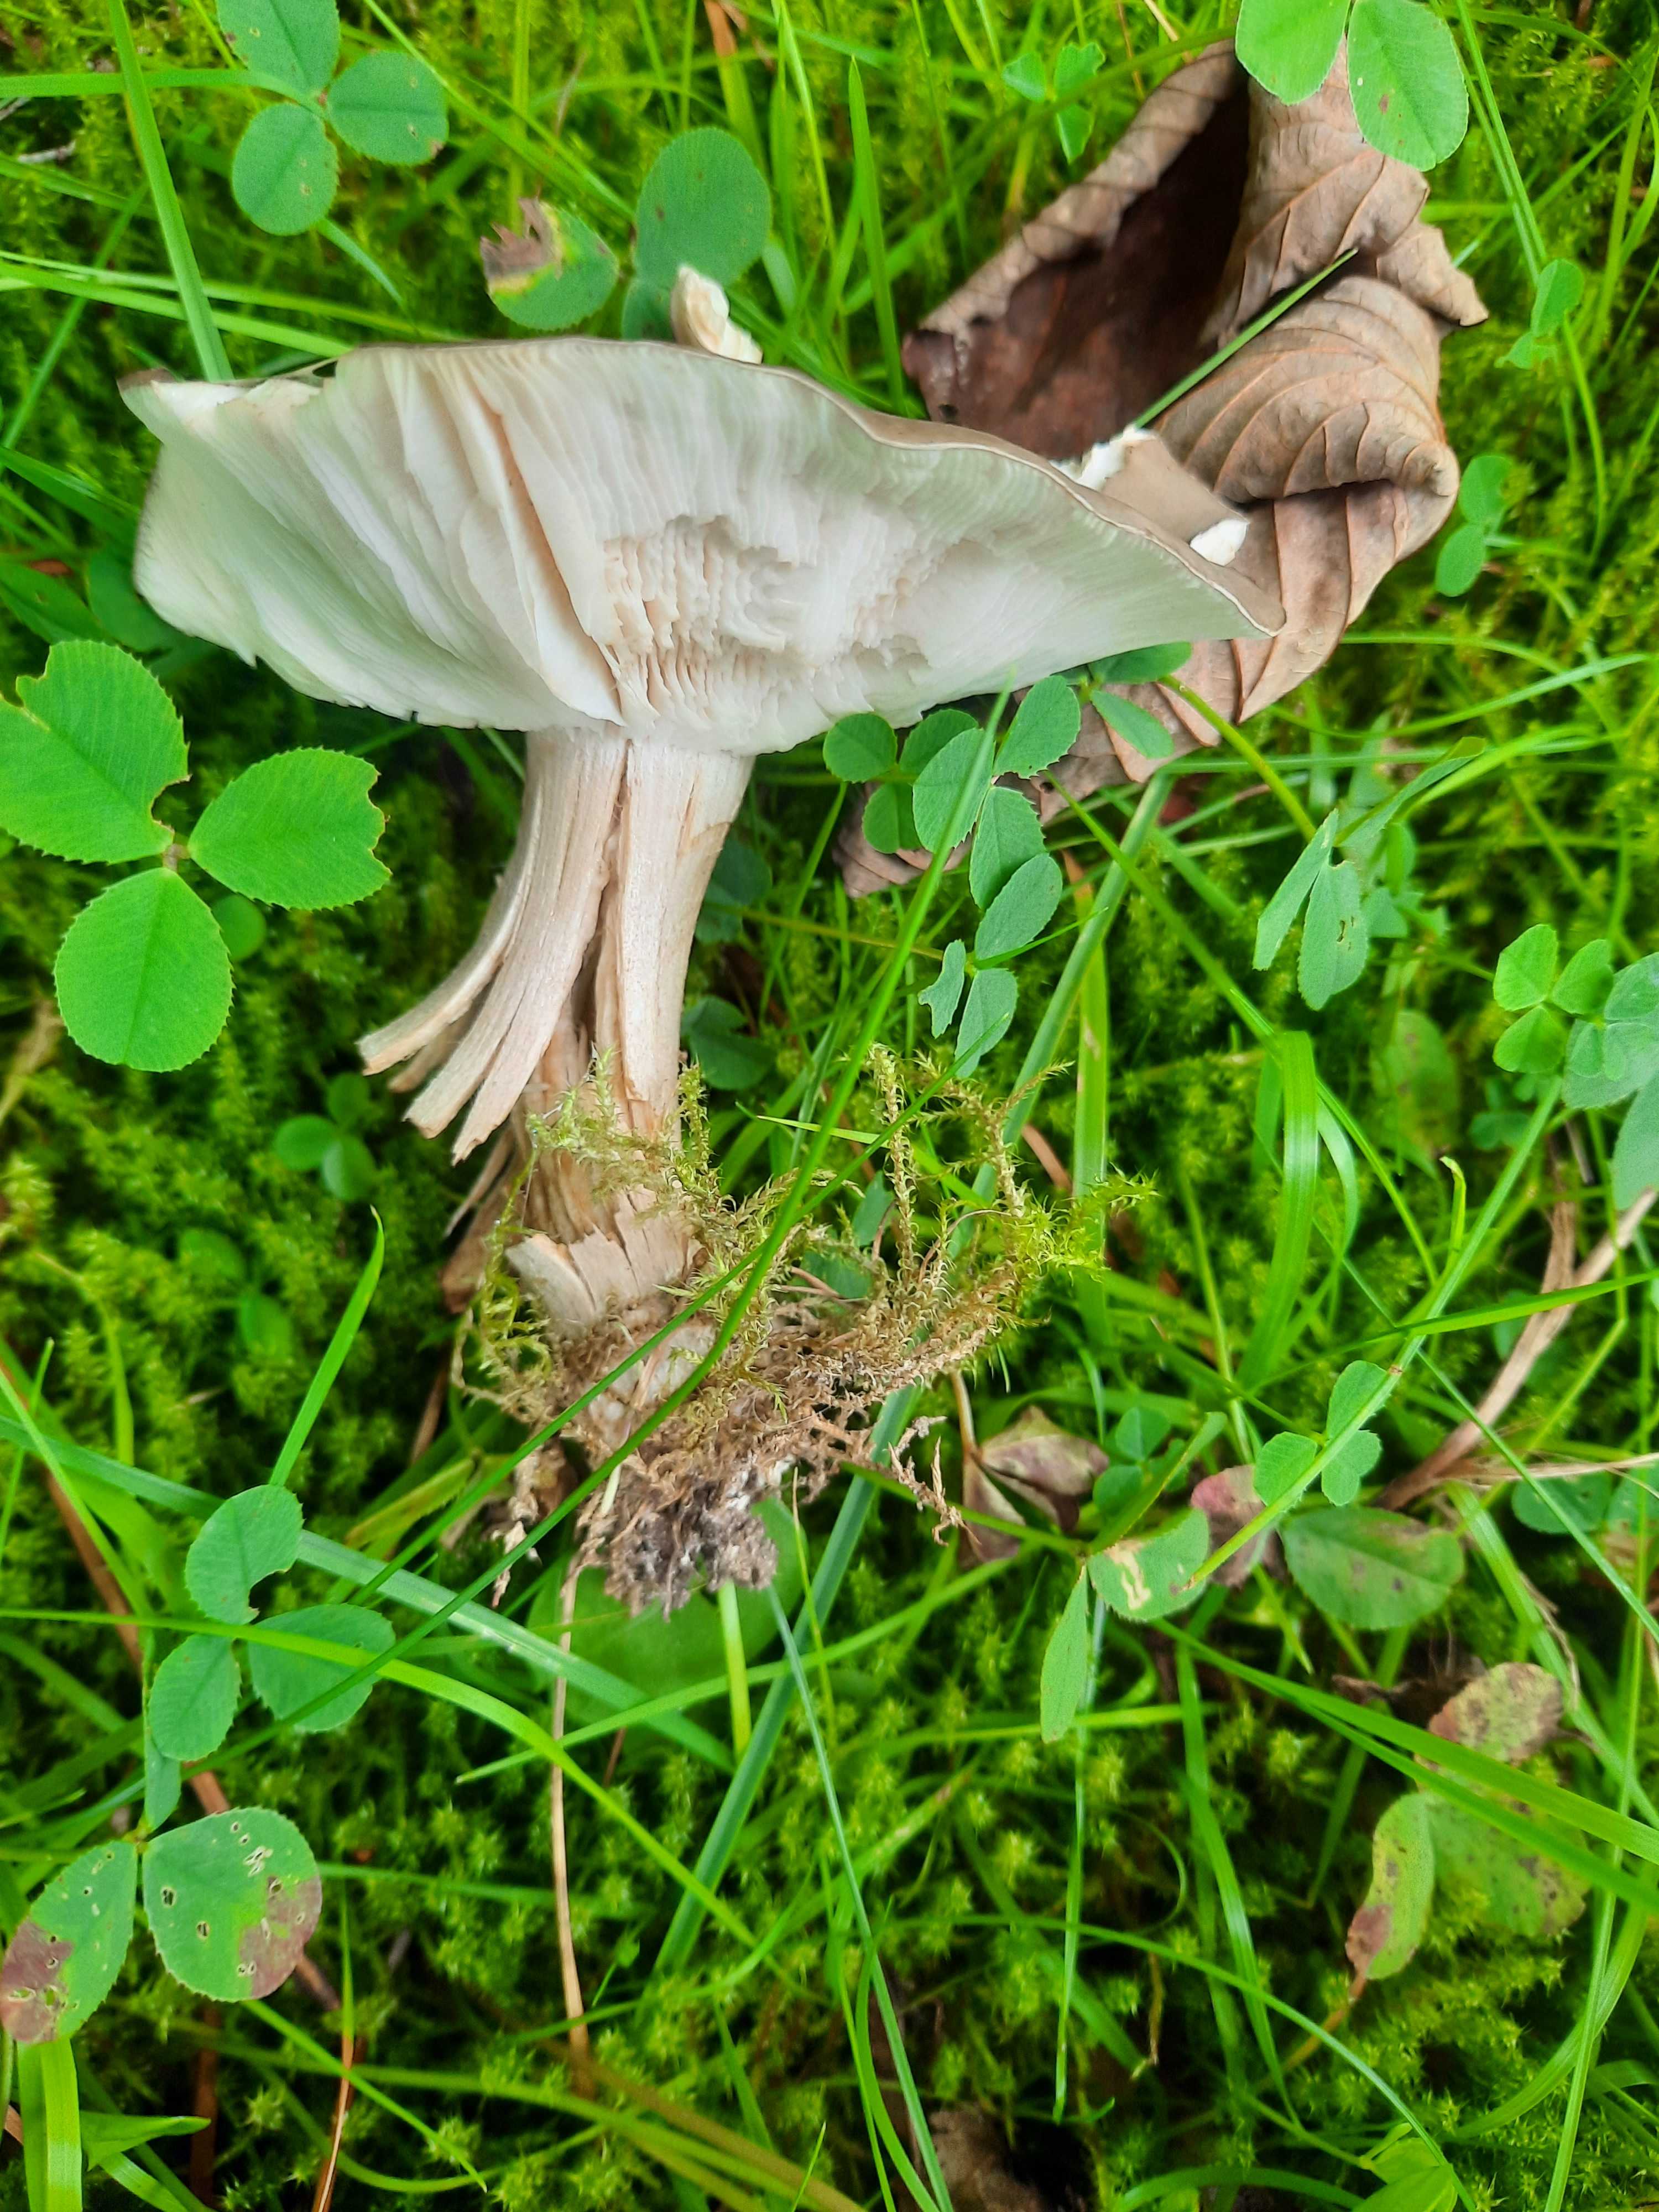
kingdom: Fungi
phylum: Basidiomycota
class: Agaricomycetes
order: Agaricales
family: Tricholomataceae
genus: Melanoleuca
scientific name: Melanoleuca
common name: munkehat
